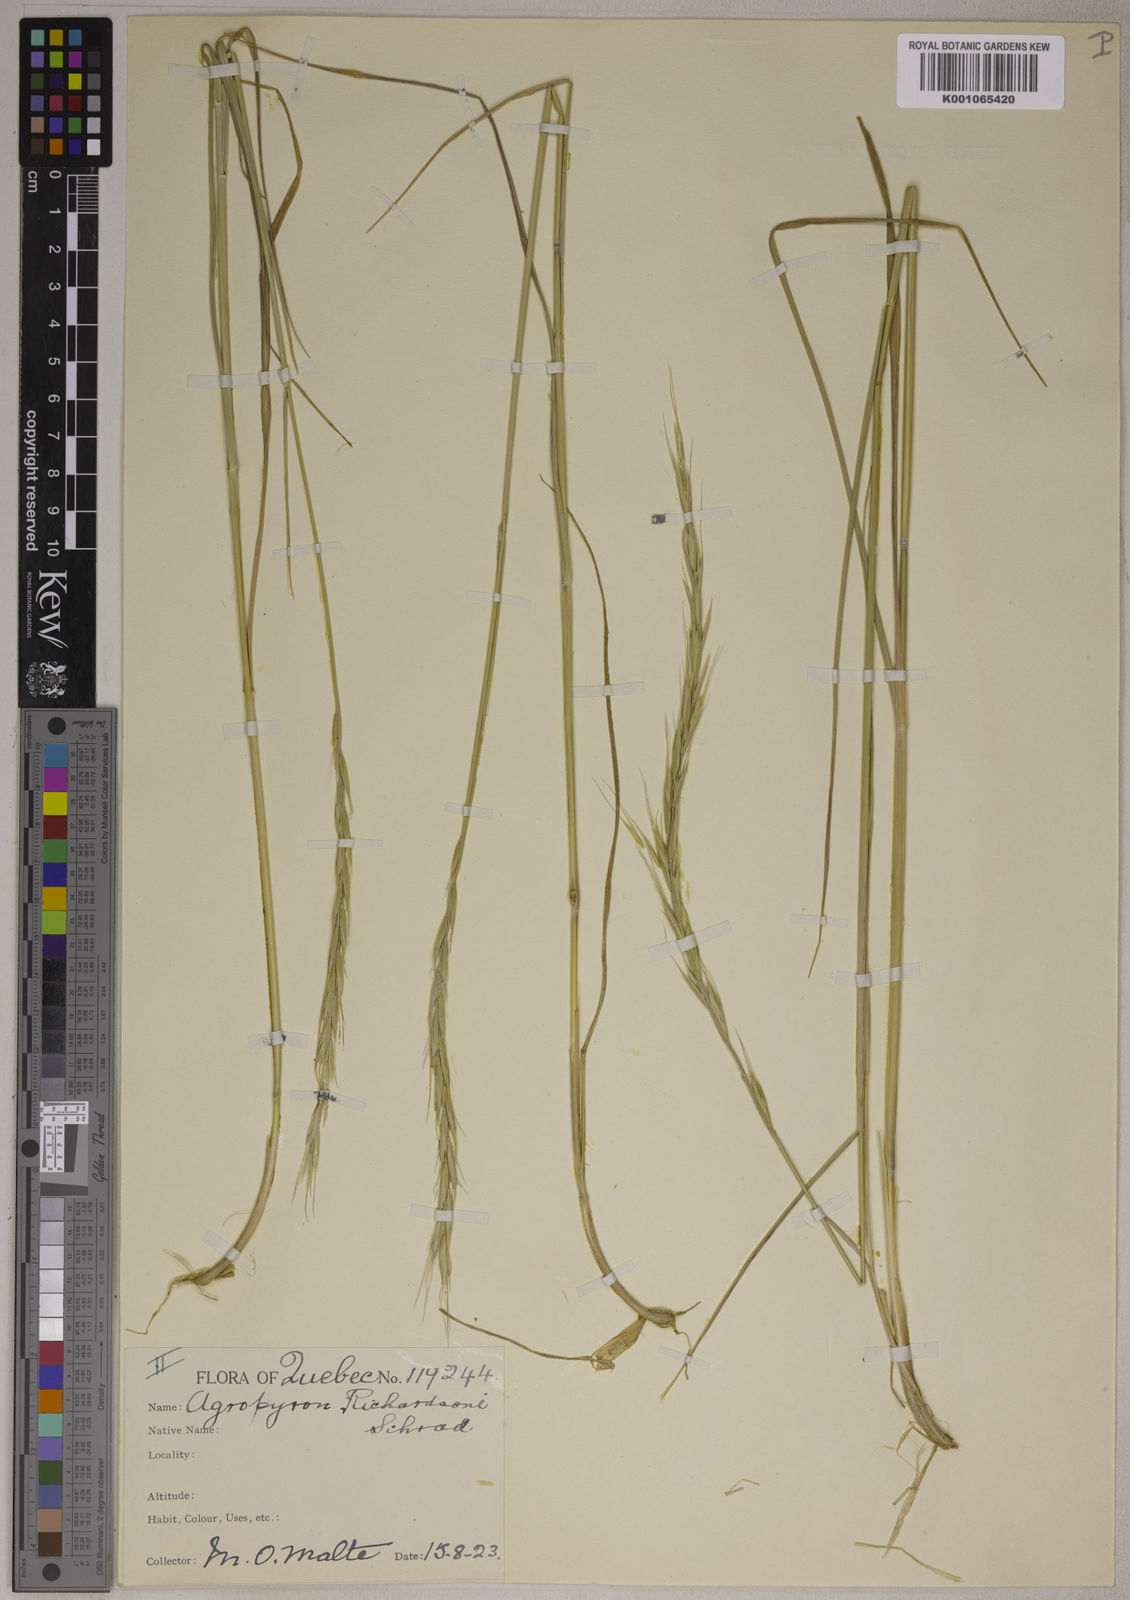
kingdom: Plantae
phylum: Tracheophyta
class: Liliopsida
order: Poales
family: Poaceae
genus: Elymus
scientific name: Elymus
